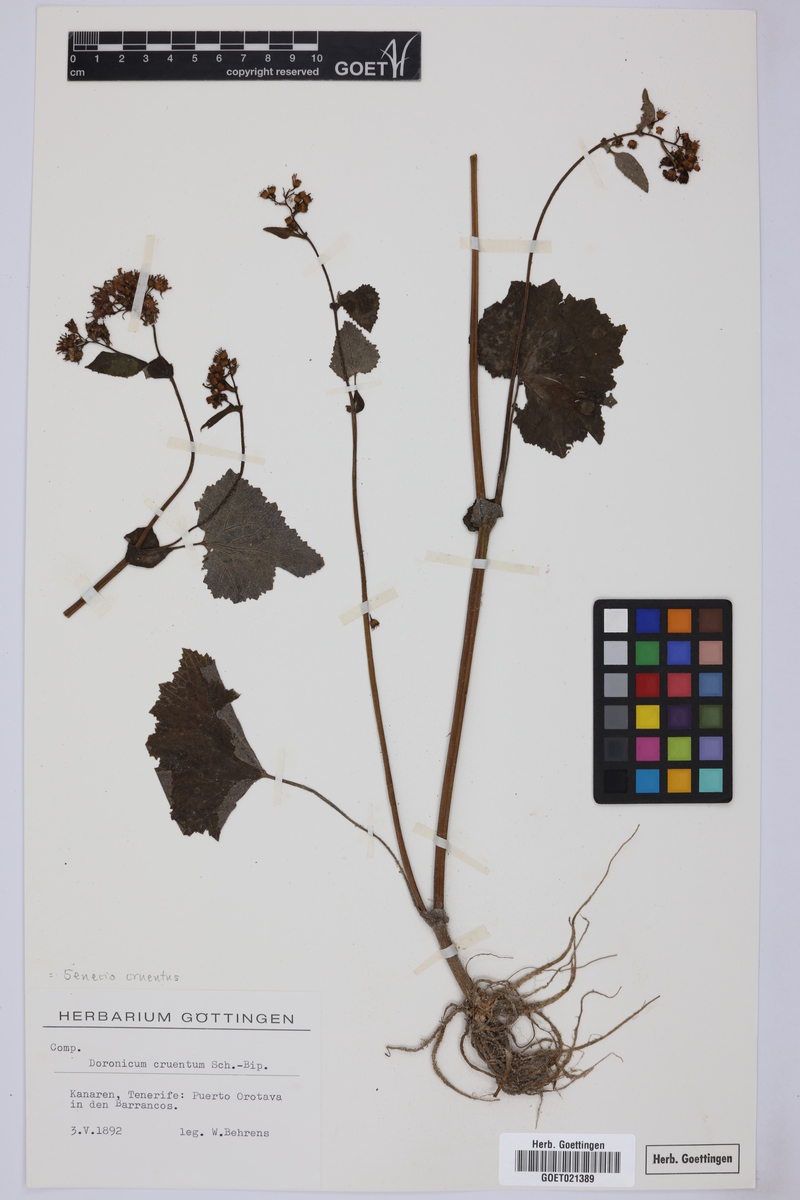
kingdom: Plantae
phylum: Tracheophyta
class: Magnoliopsida
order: Asterales
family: Asteraceae
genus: Pericallis
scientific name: Pericallis cruenta
